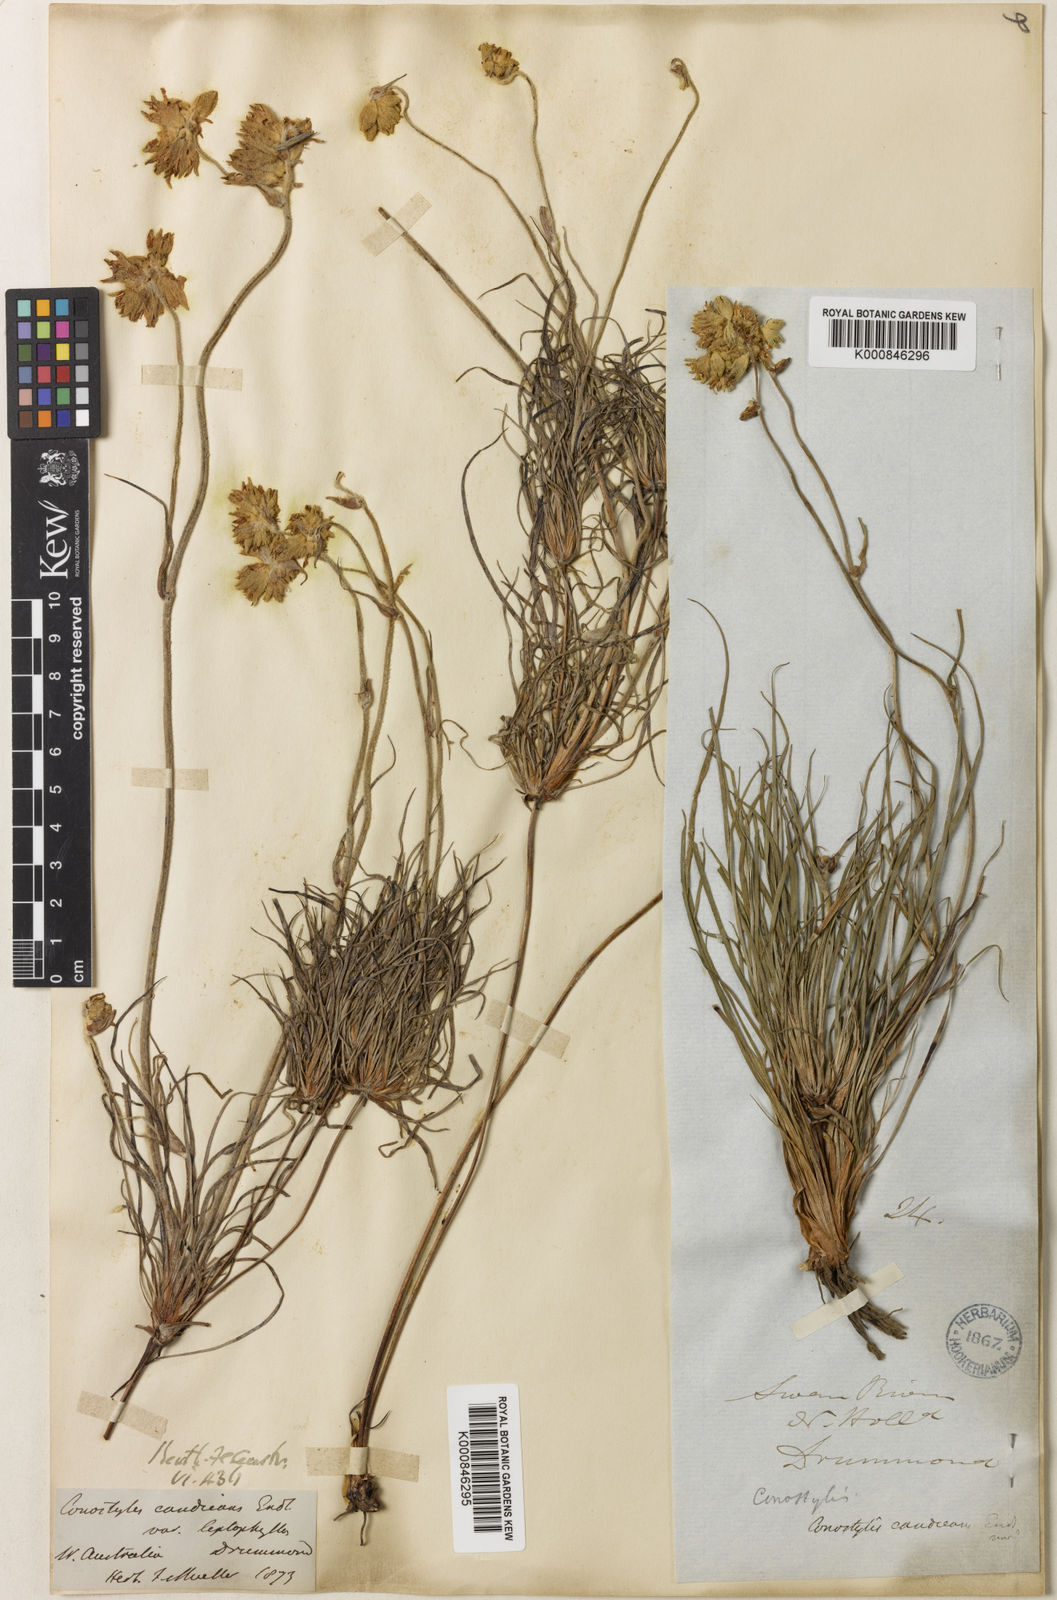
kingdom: Plantae
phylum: Tracheophyta
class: Liliopsida
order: Commelinales
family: Haemodoraceae
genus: Conostylis
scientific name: Conostylis candicans
